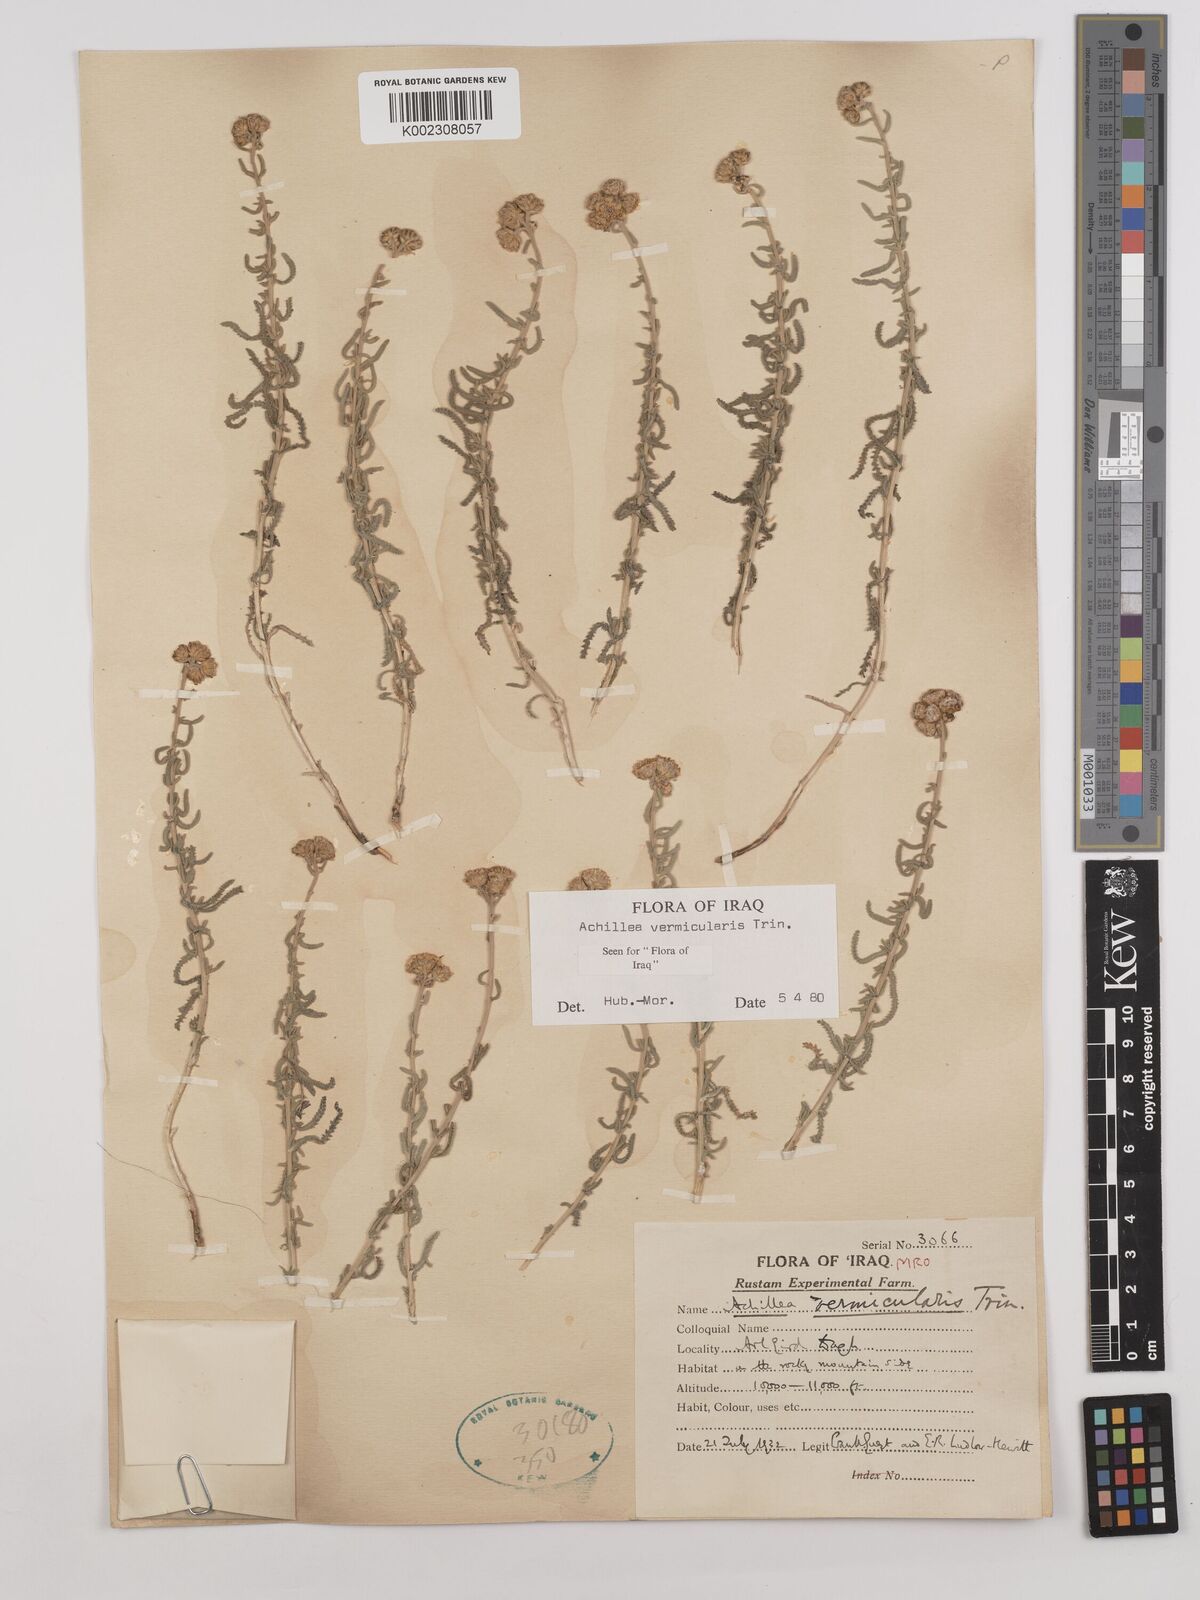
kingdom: Plantae
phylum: Tracheophyta
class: Magnoliopsida
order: Asterales
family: Asteraceae
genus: Achillea
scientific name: Achillea vermicularis
